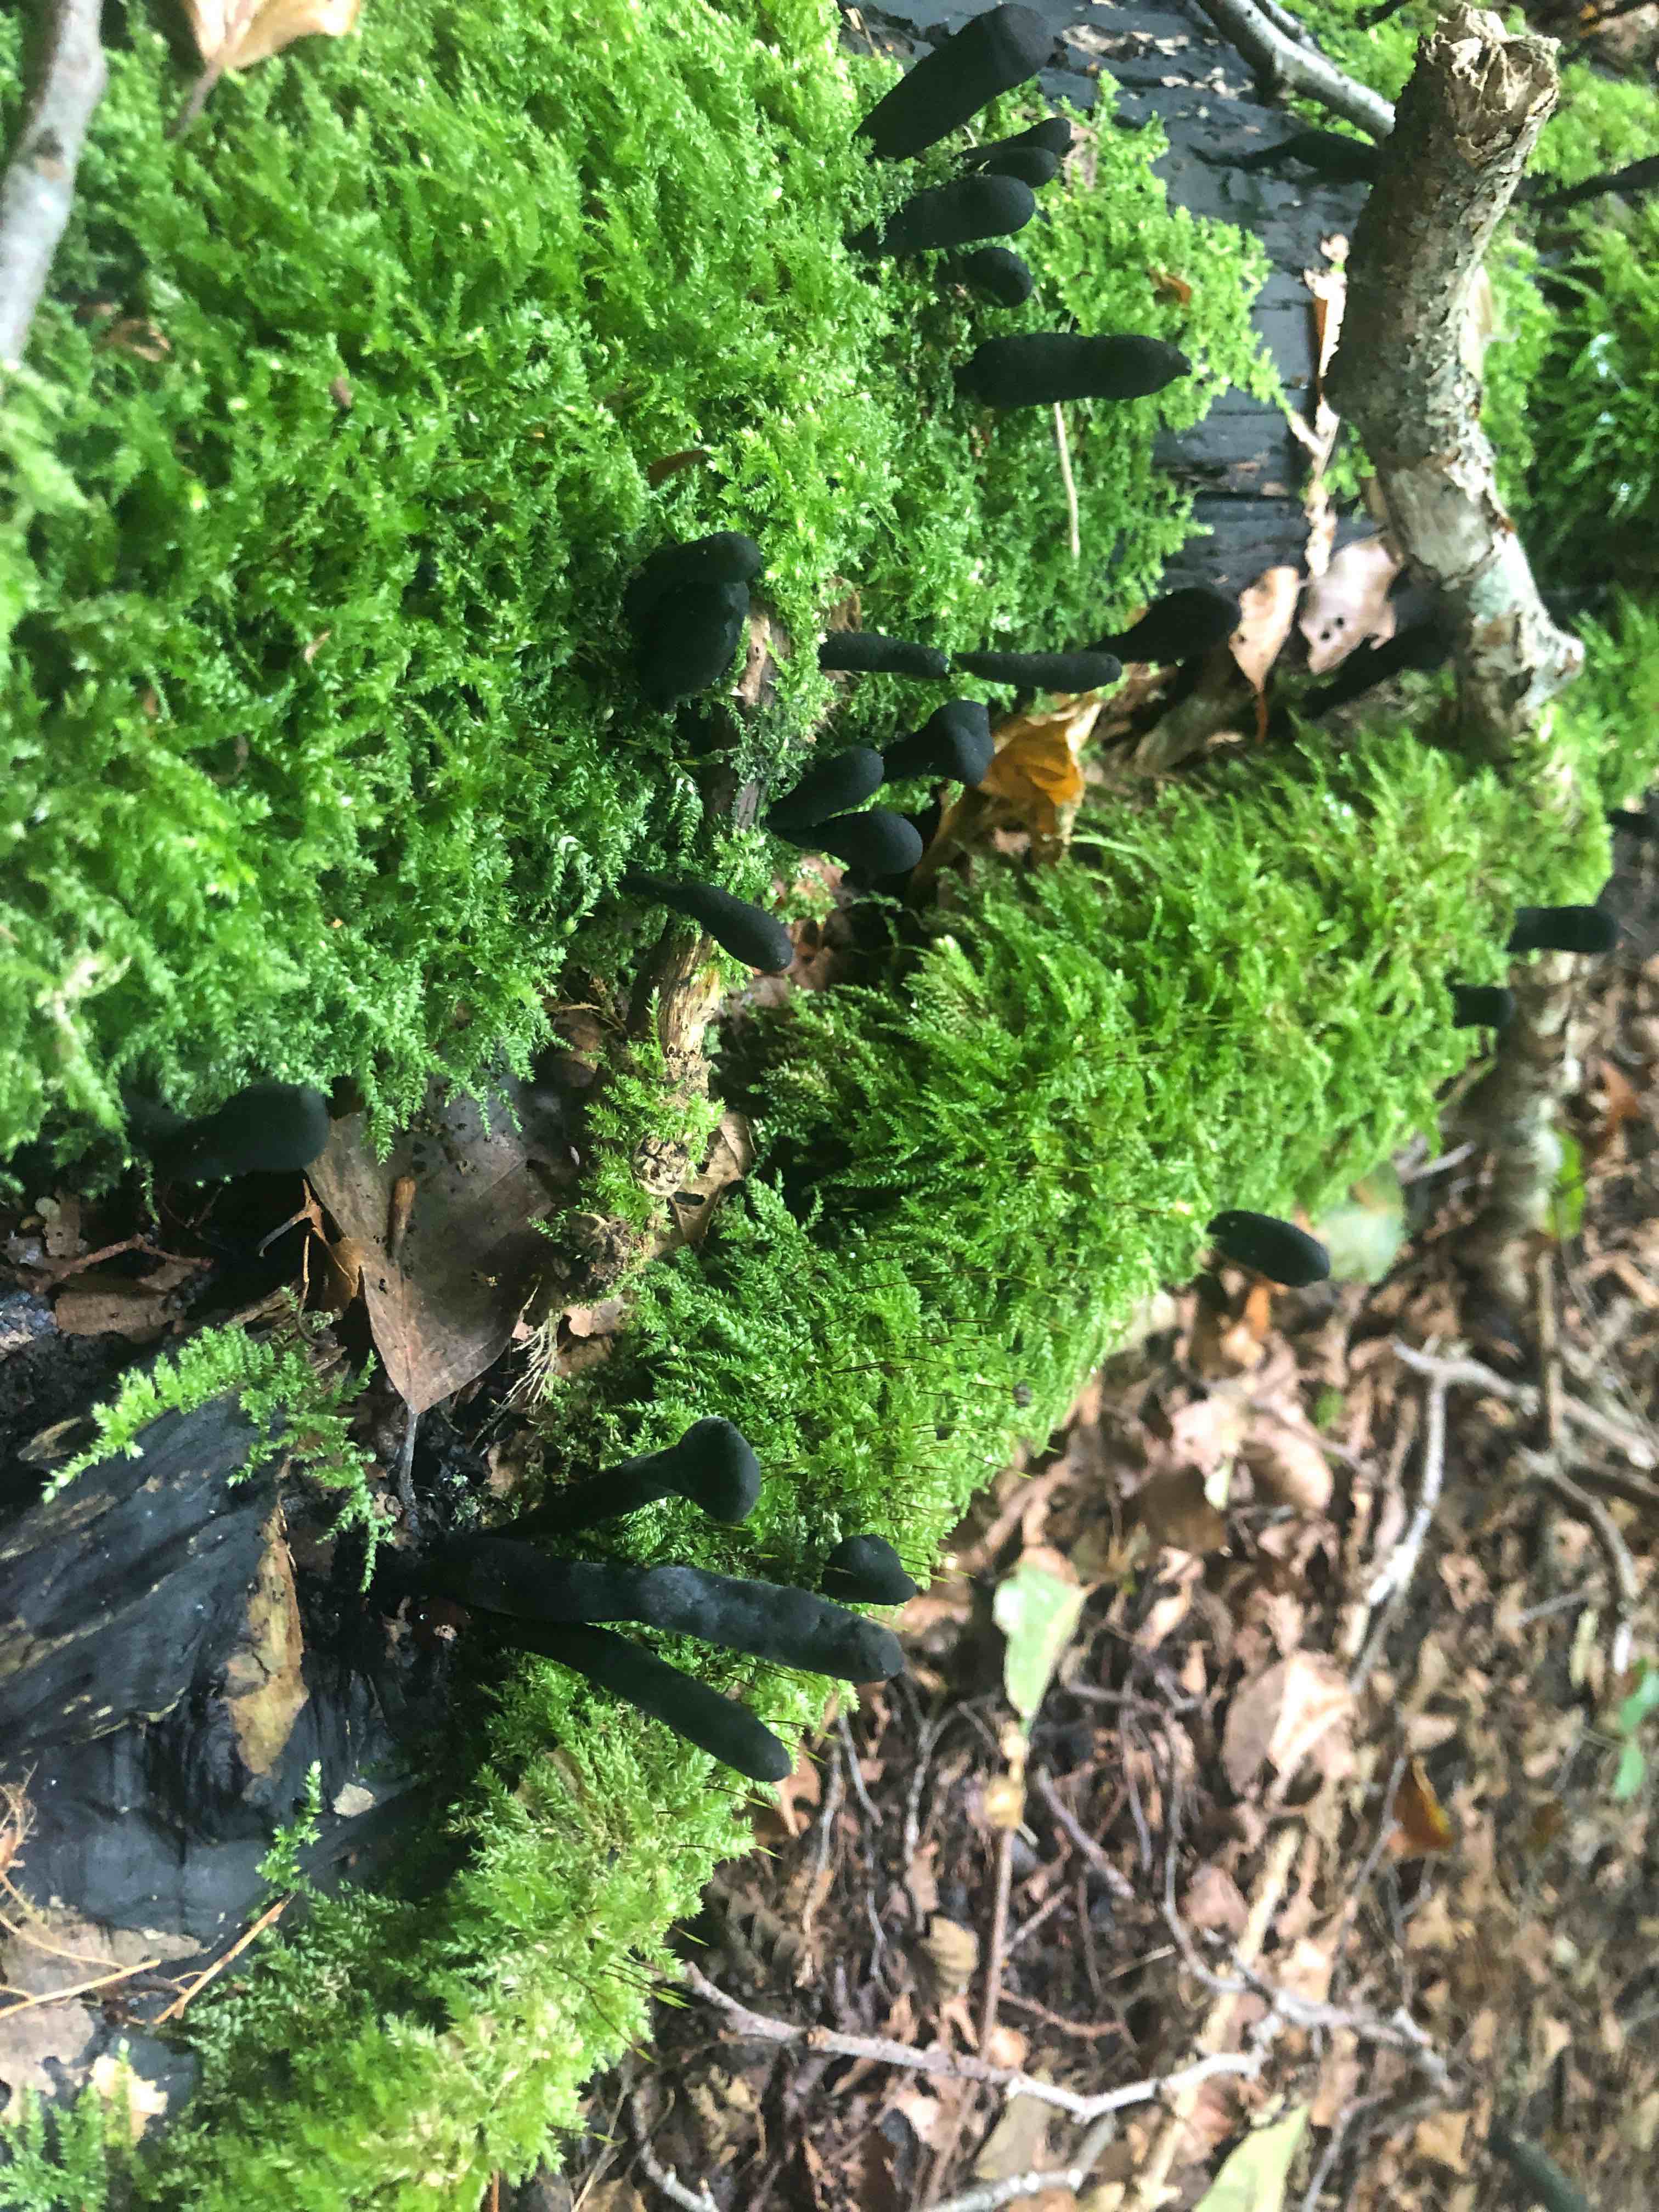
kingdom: Fungi
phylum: Ascomycota
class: Sordariomycetes
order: Xylariales
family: Xylariaceae
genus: Xylaria
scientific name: Xylaria longipes
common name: slank stødsvamp
